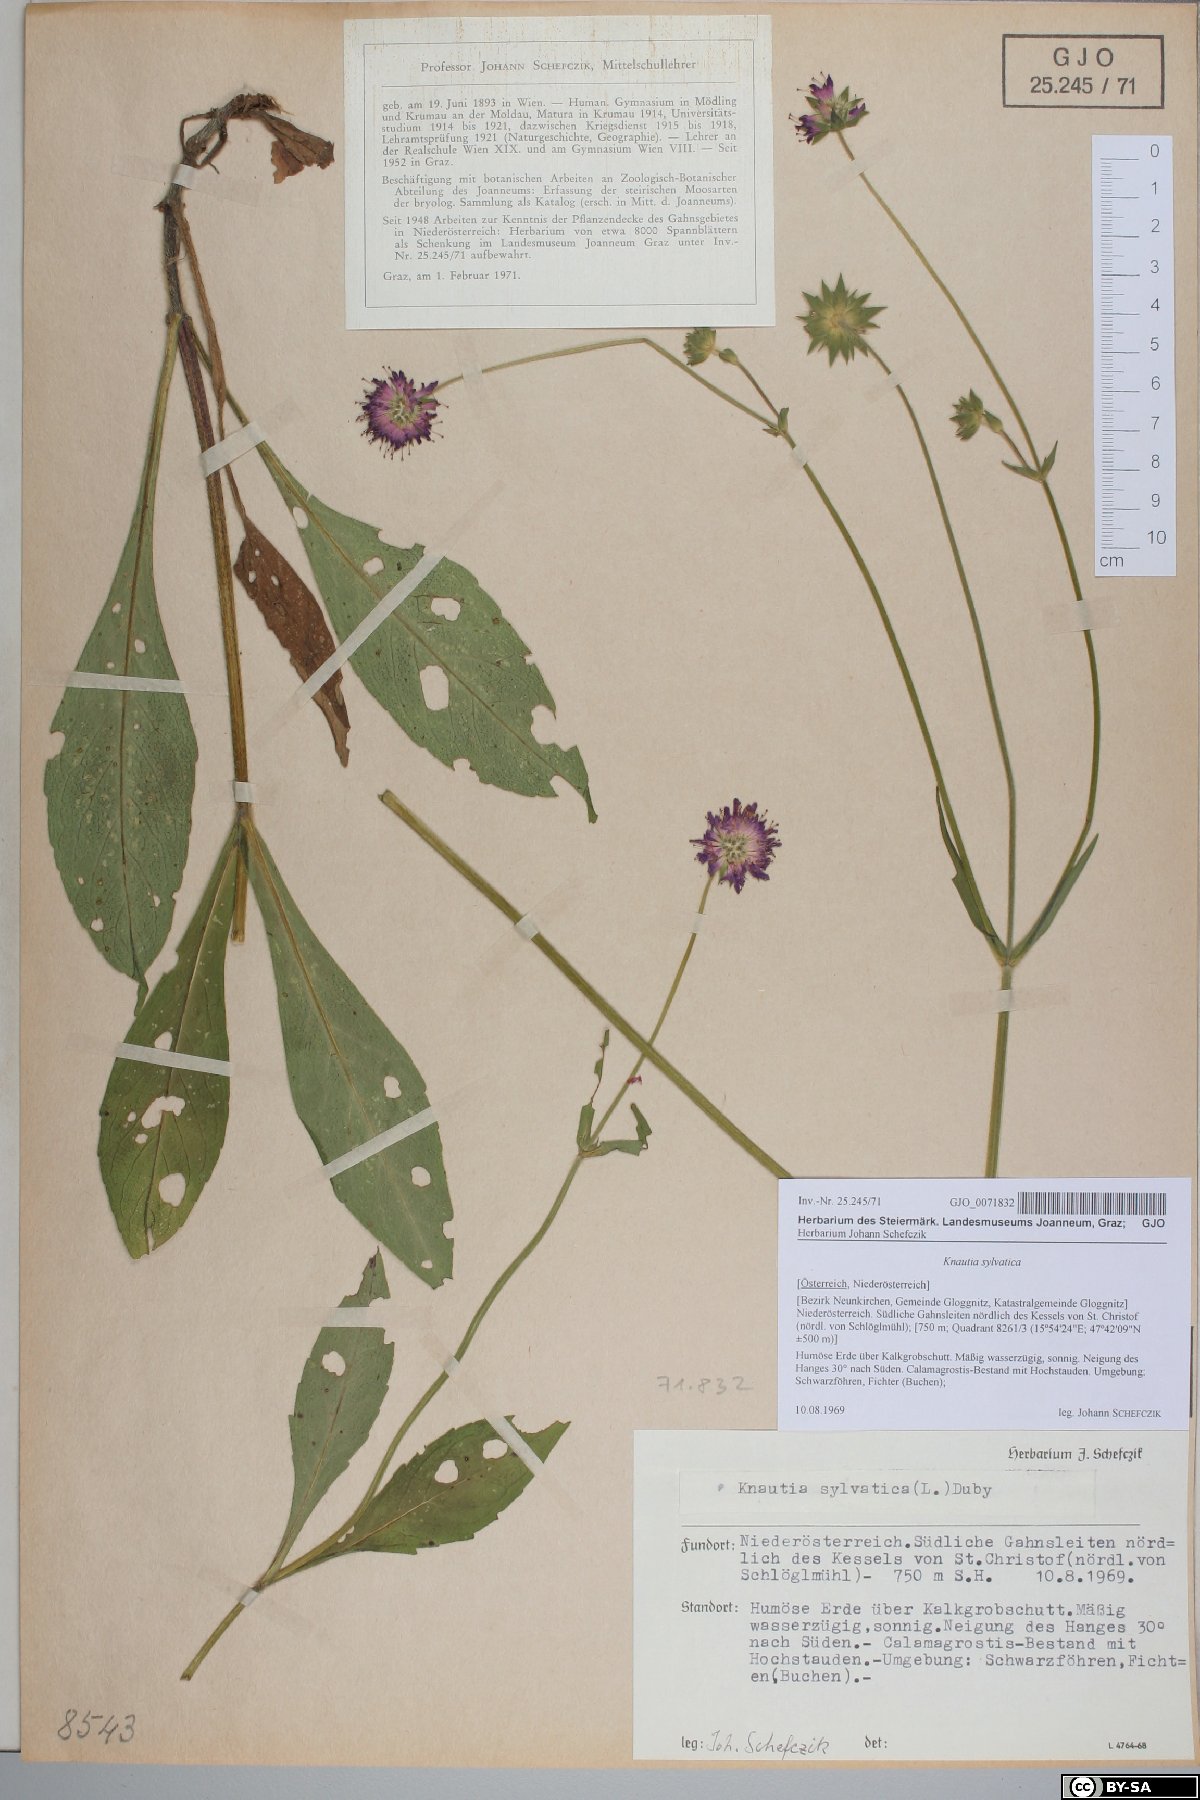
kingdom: Plantae
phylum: Tracheophyta
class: Magnoliopsida
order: Dipsacales
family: Caprifoliaceae
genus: Knautia
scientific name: Knautia drymeia
